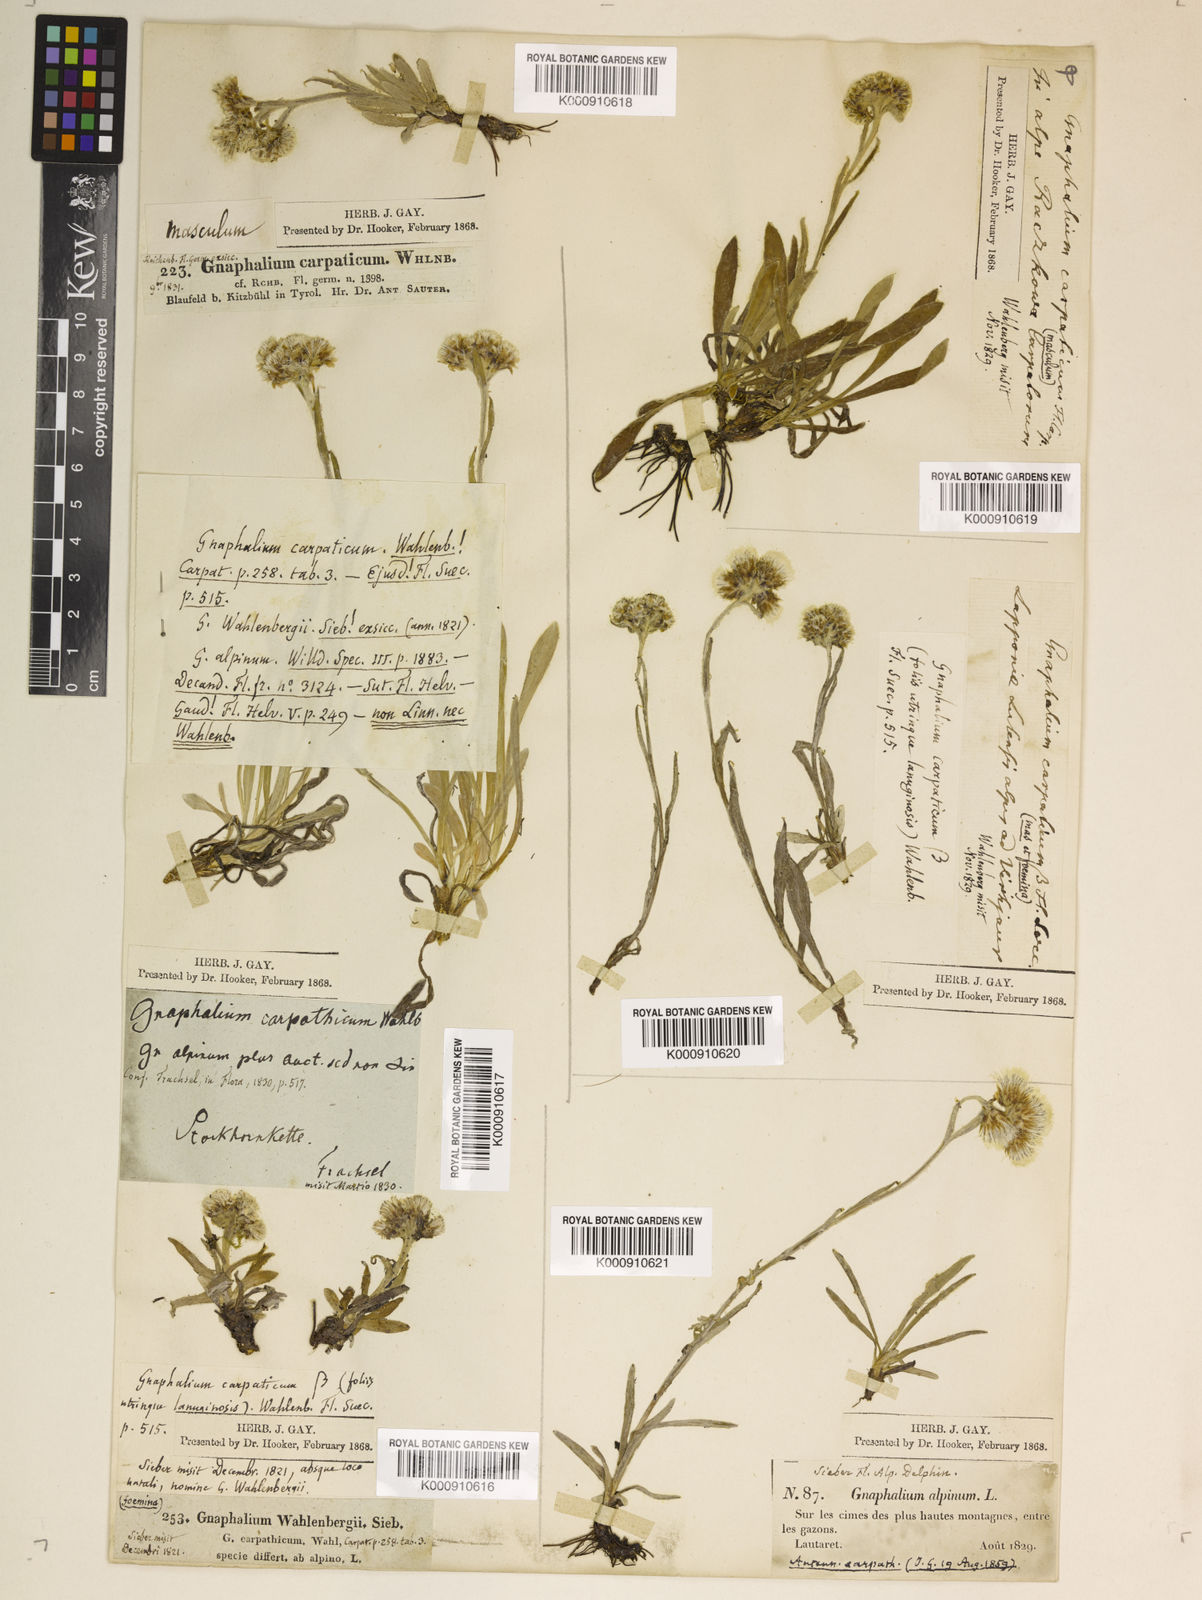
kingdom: Plantae
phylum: Tracheophyta
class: Magnoliopsida
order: Asterales
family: Asteraceae
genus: Antennaria
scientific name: Antennaria
